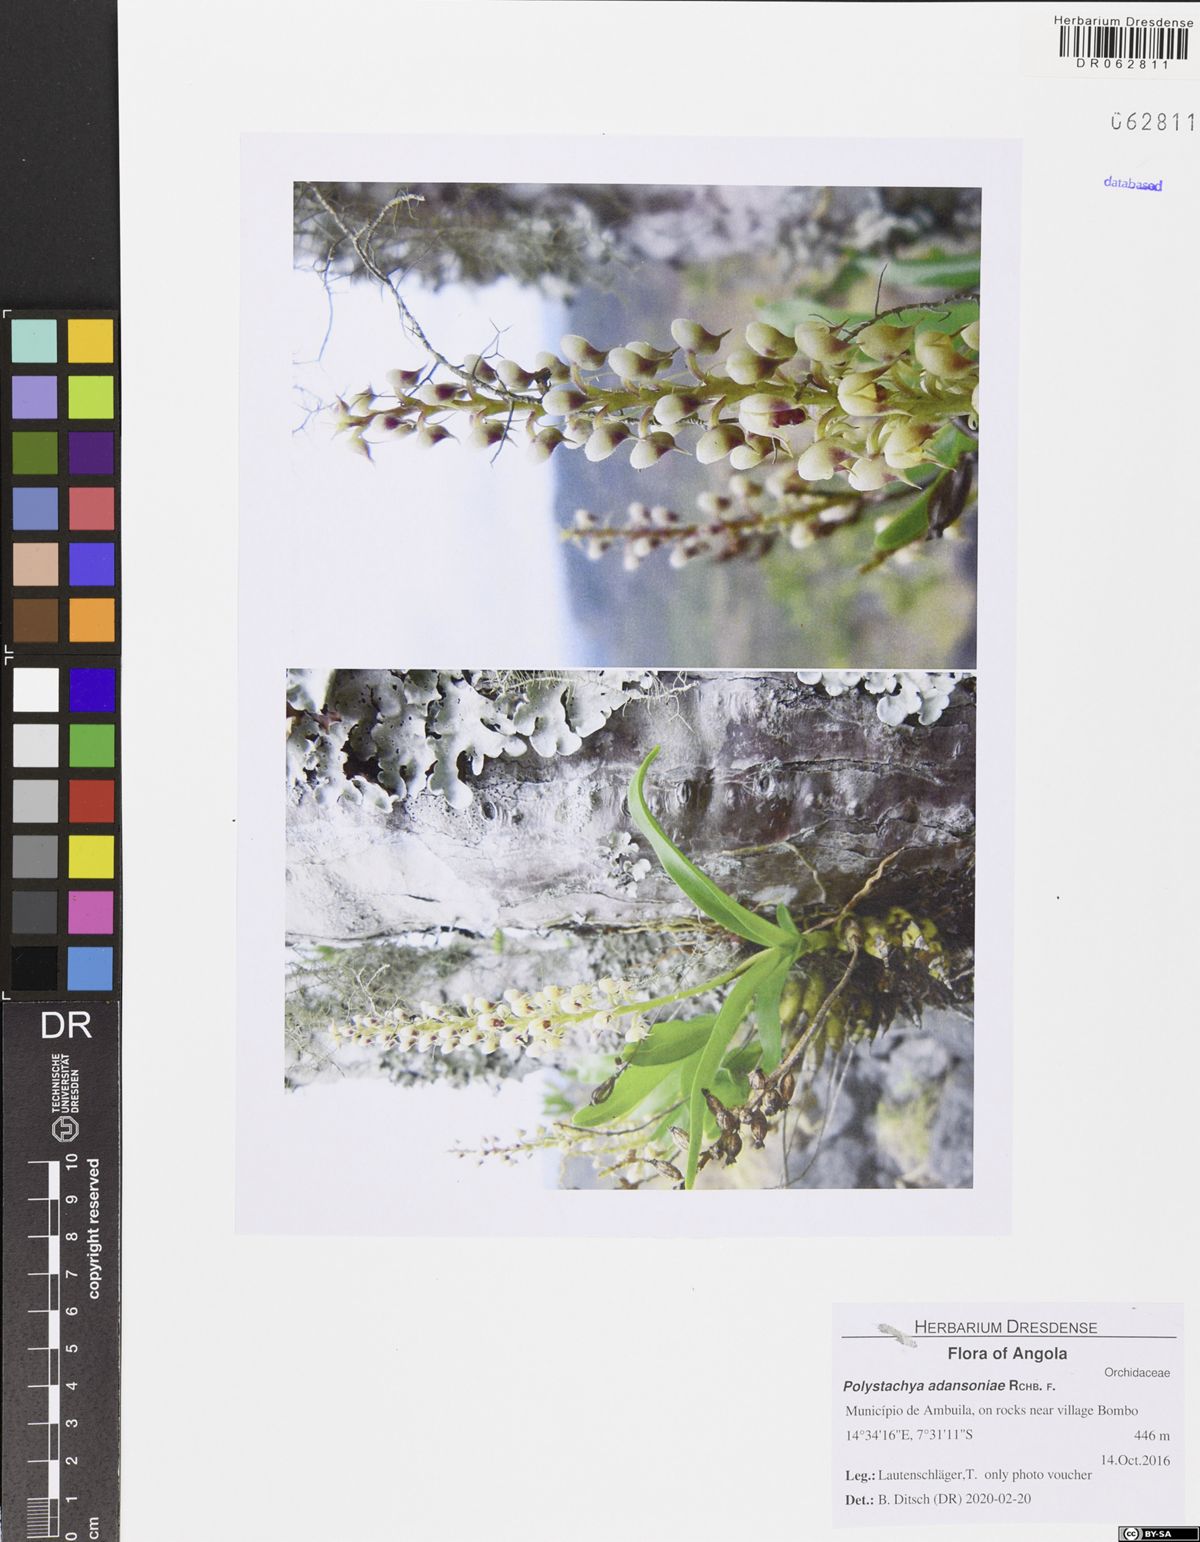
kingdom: Plantae
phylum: Tracheophyta
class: Liliopsida
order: Asparagales
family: Orchidaceae
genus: Polystachya
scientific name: Polystachya adansoniae
